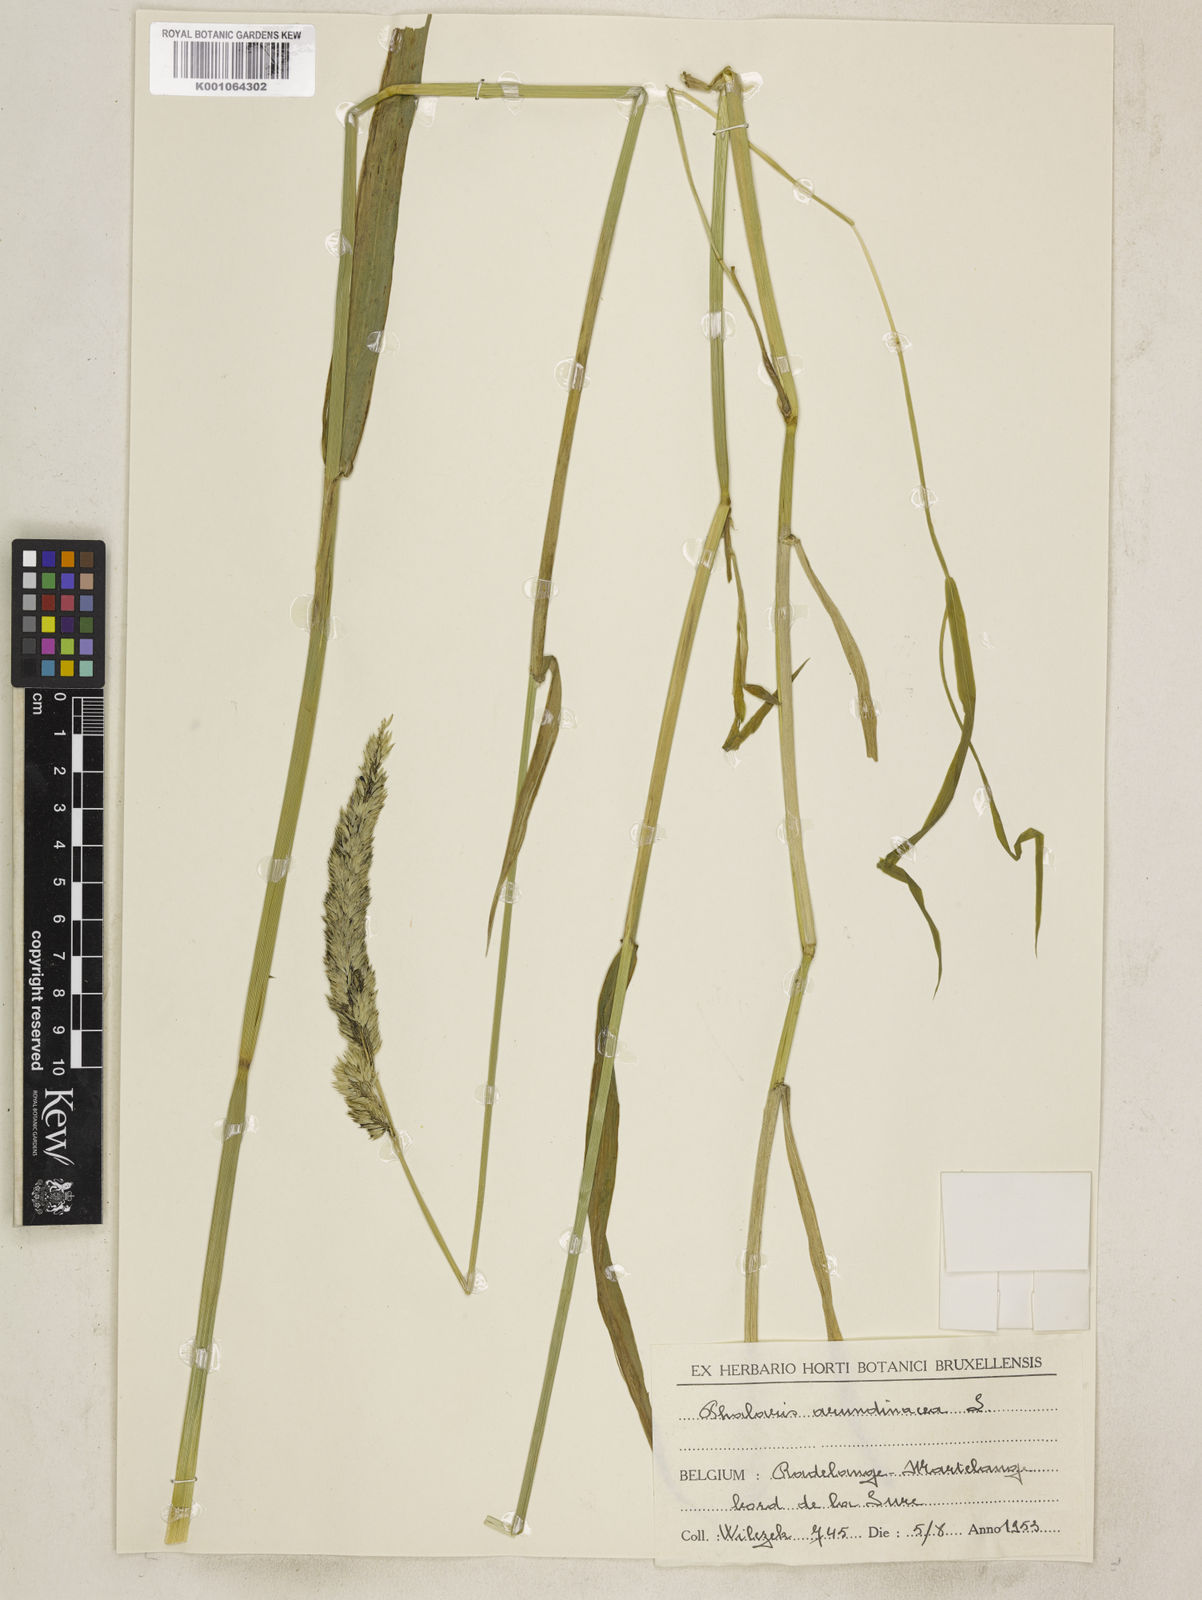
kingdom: Plantae
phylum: Tracheophyta
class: Liliopsida
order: Poales
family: Poaceae
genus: Phalaris
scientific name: Phalaris arundinacea
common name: Reed canary-grass
